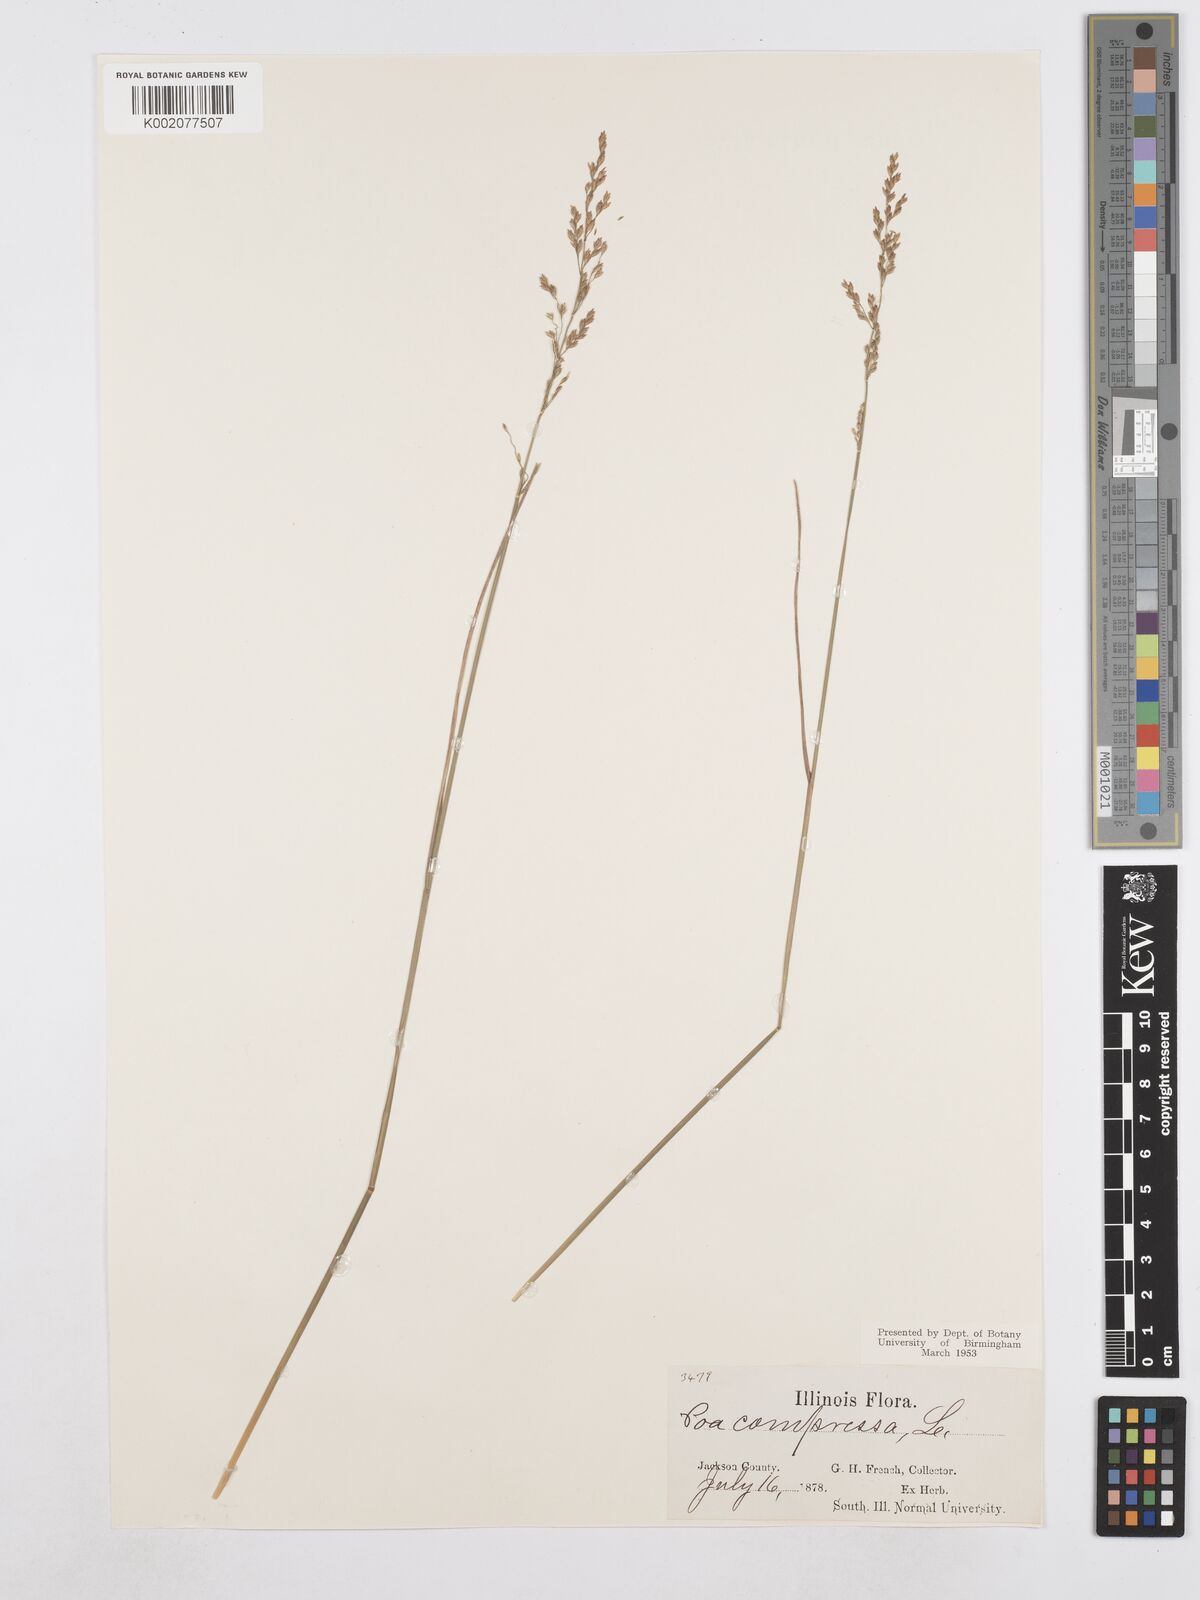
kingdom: Plantae
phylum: Tracheophyta
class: Liliopsida
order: Poales
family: Poaceae
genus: Poa
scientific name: Poa compressa
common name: Canada bluegrass
